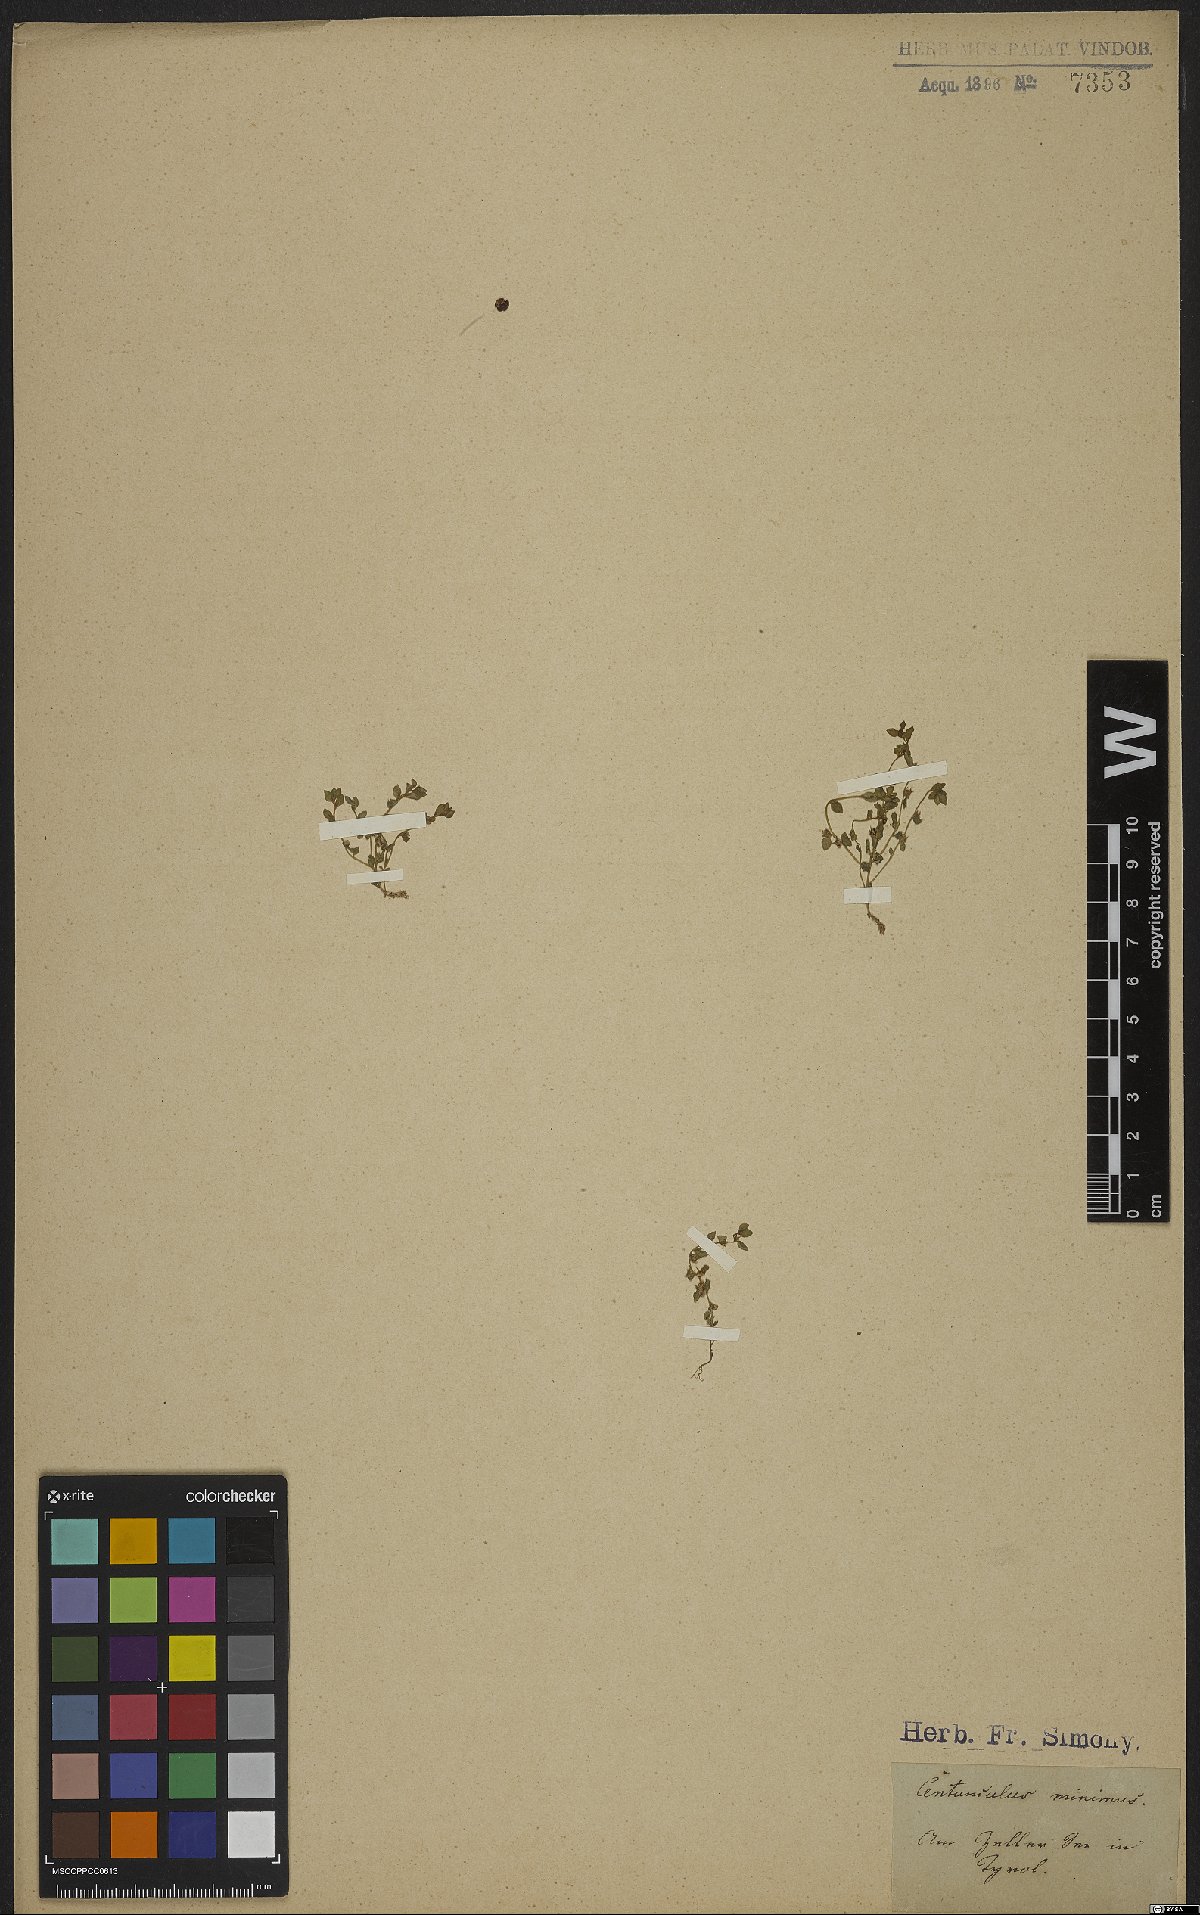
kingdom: Plantae
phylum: Tracheophyta
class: Magnoliopsida
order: Ericales
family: Primulaceae
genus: Lysimachia
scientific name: Lysimachia minima
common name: Chaffweed
